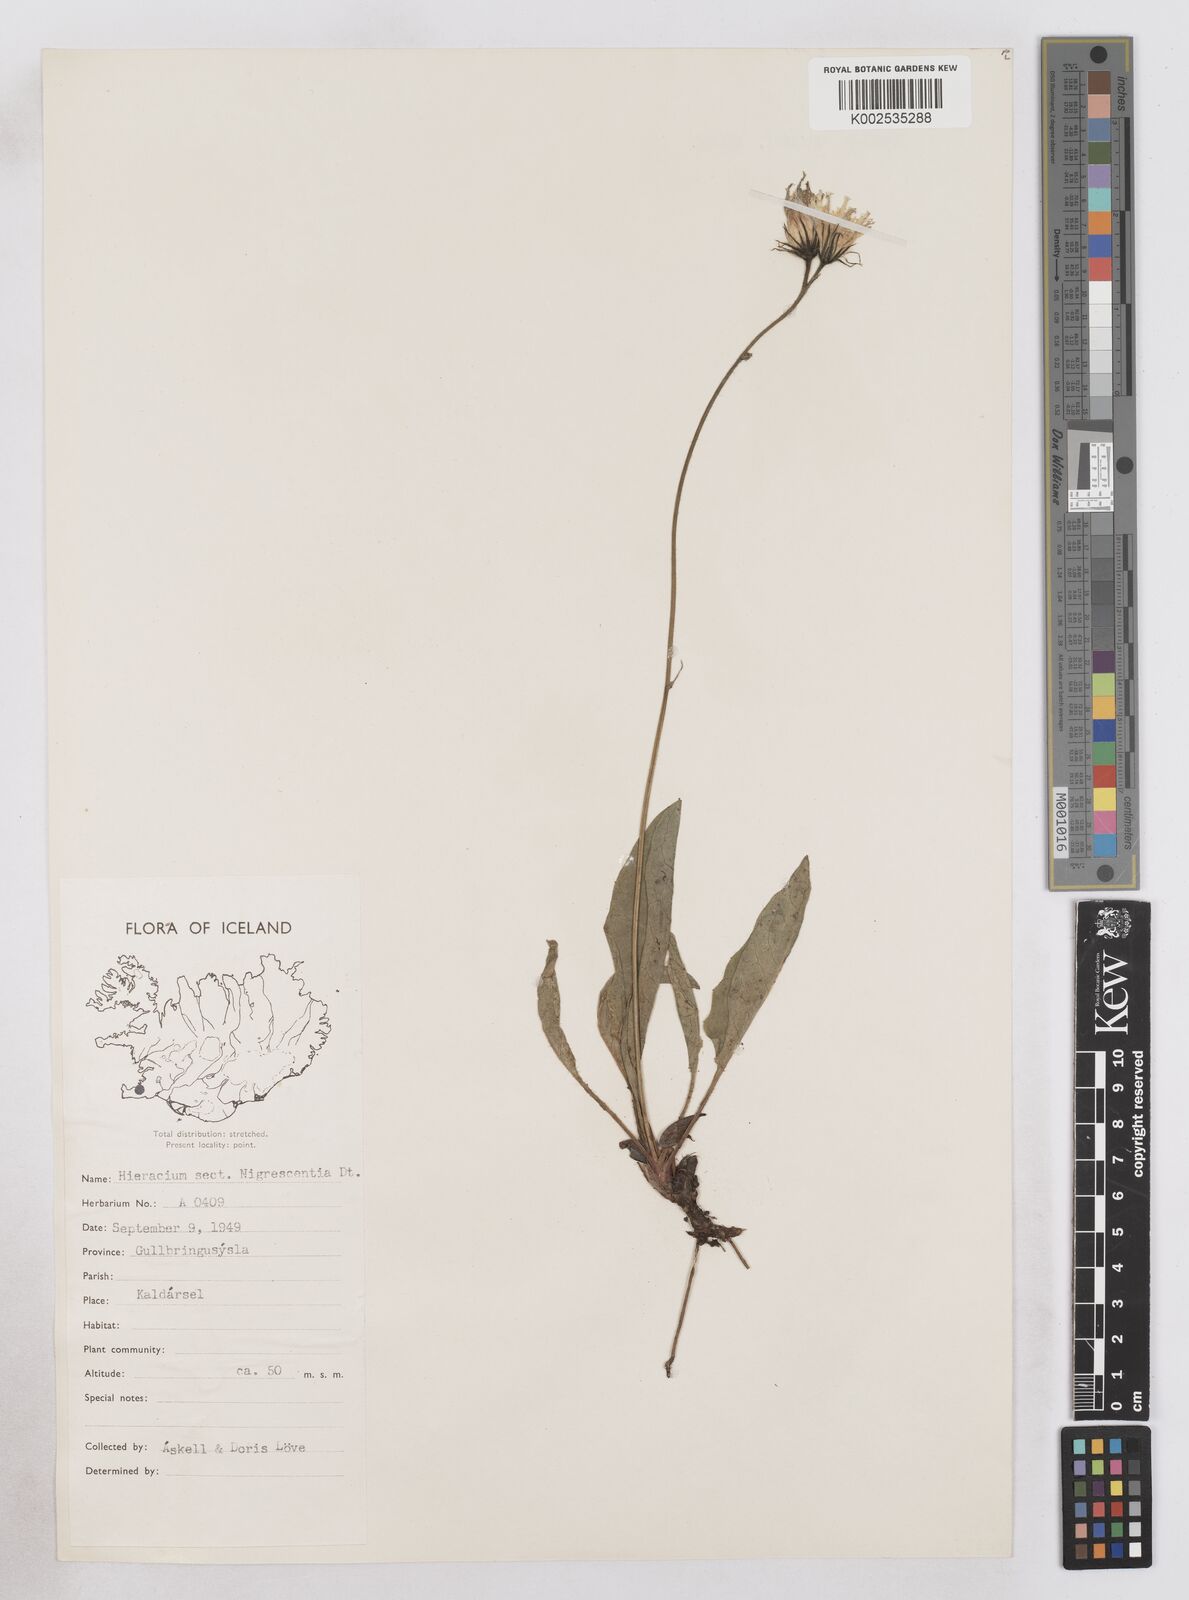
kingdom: Plantae
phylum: Tracheophyta
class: Magnoliopsida
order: Asterales
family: Asteraceae
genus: Hieracium
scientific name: Hieracium atratum
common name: Polar hawkweed
